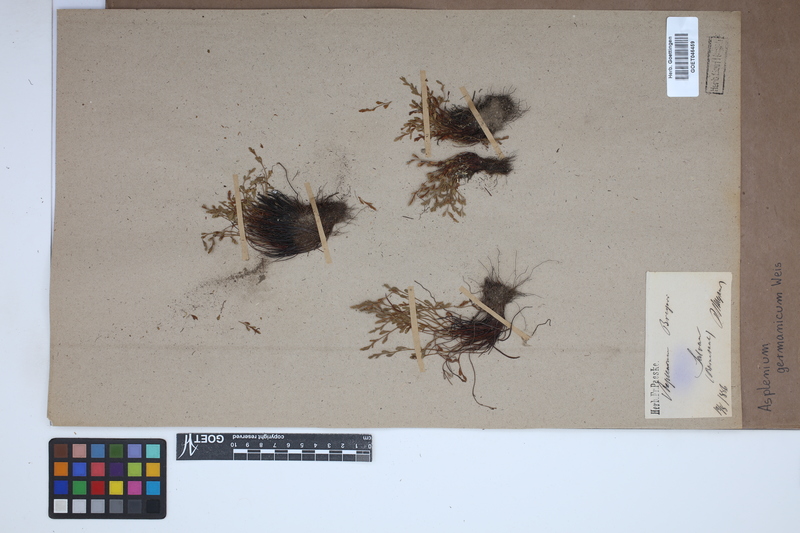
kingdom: Plantae
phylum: Tracheophyta
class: Polypodiopsida
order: Polypodiales
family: Aspleniaceae
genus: Asplenium
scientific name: Asplenium
